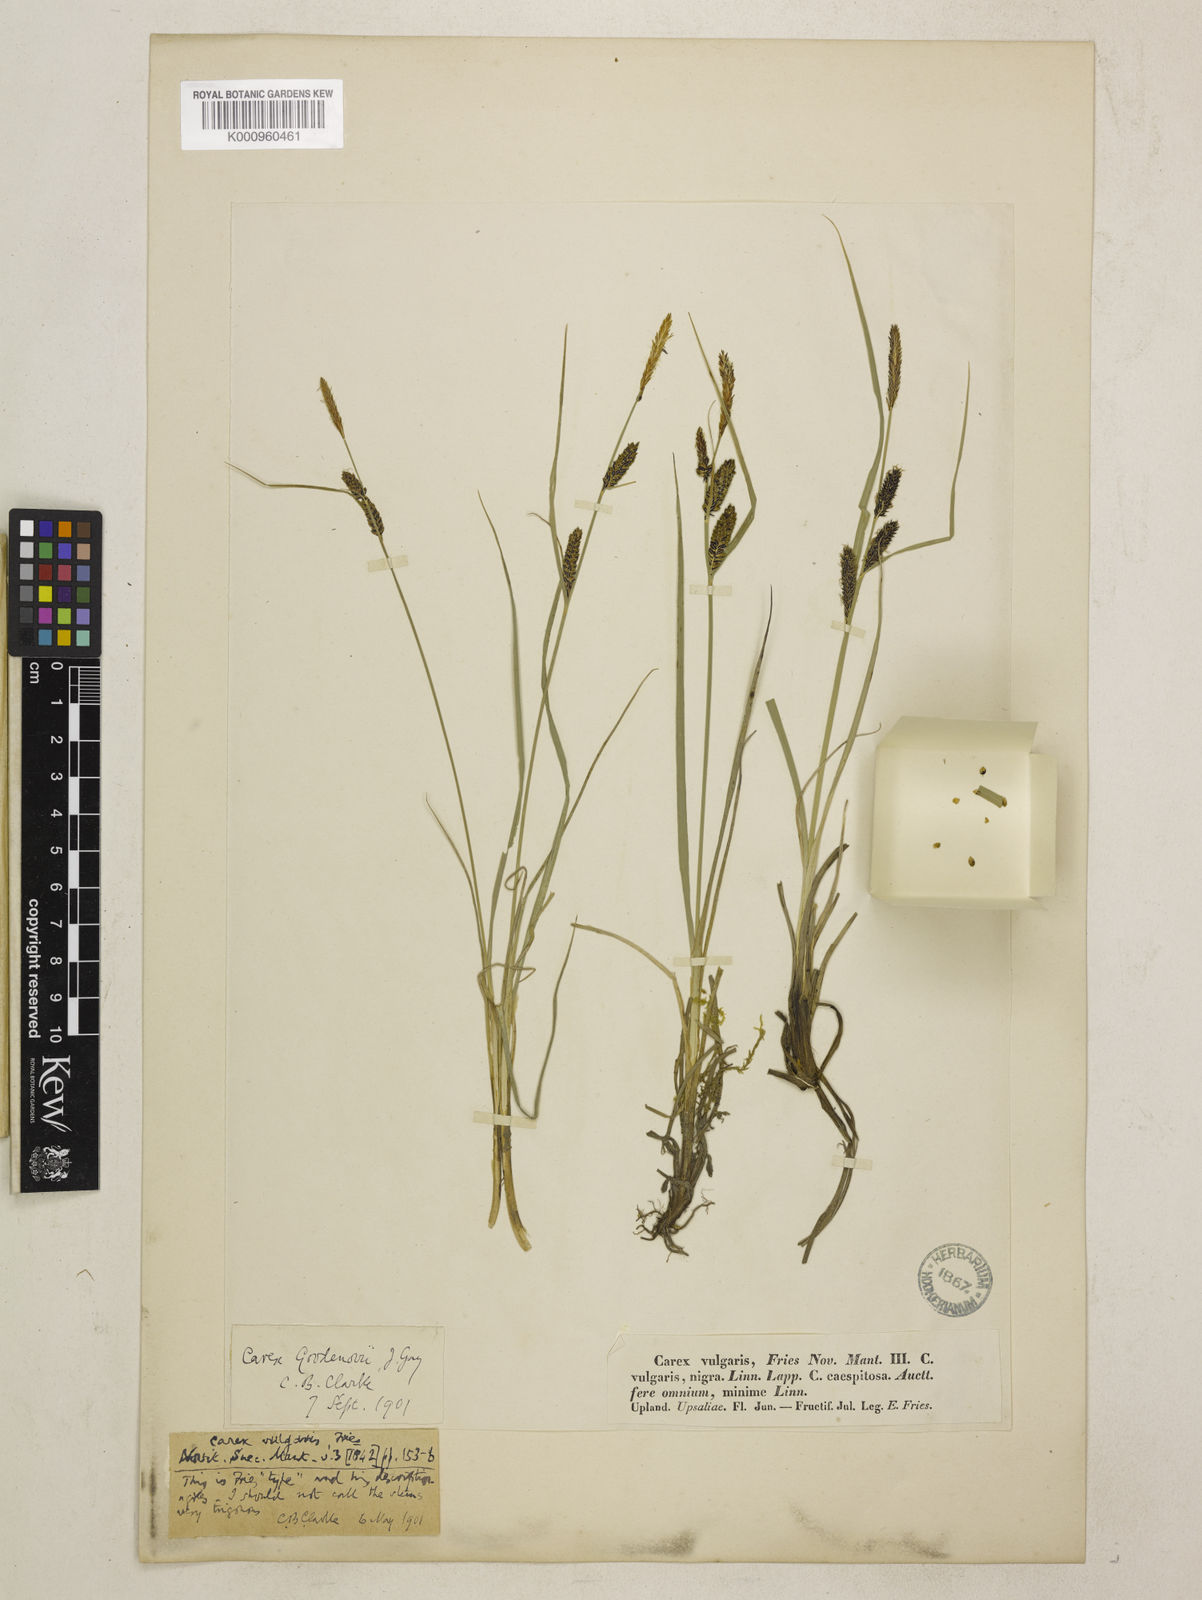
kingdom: Plantae
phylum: Tracheophyta
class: Liliopsida
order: Poales
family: Cyperaceae
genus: Carex
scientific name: Carex nigra
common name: Common sedge
